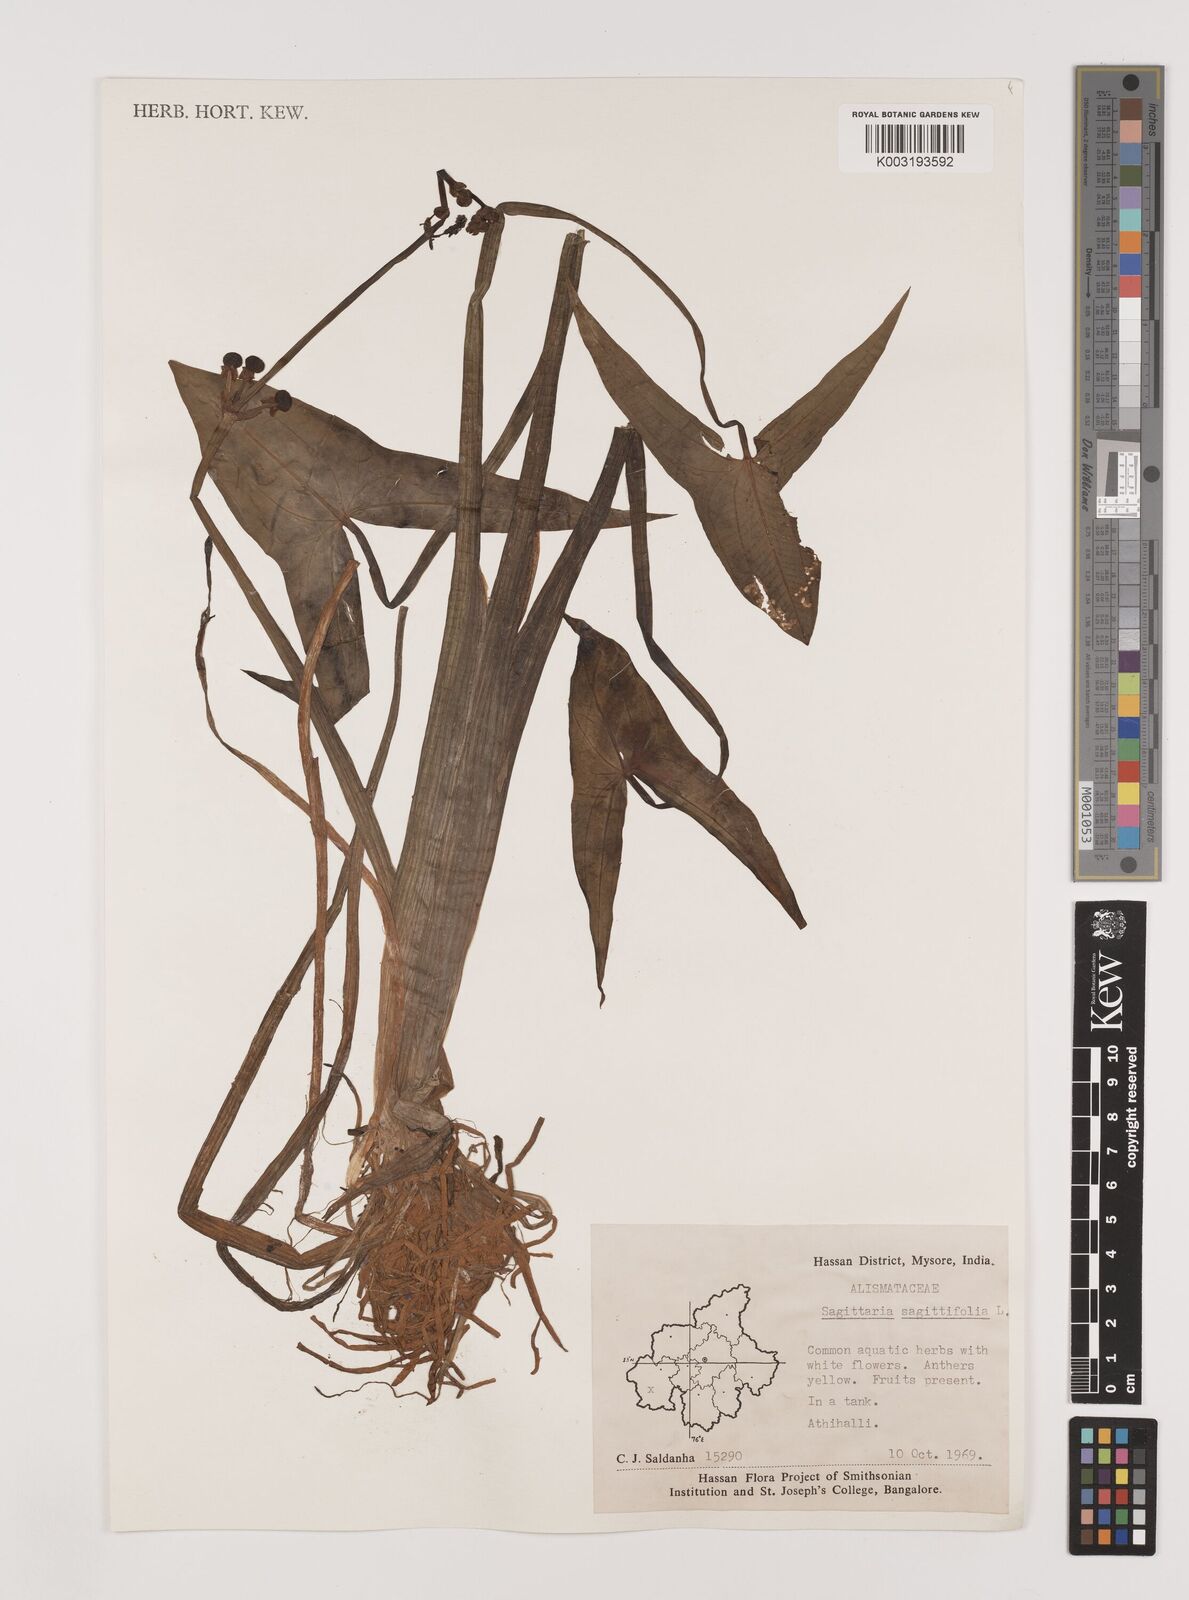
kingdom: Plantae
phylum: Tracheophyta
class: Liliopsida
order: Alismatales
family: Alismataceae
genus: Sagittaria
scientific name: Sagittaria sagittifolia
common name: Arrowhead
